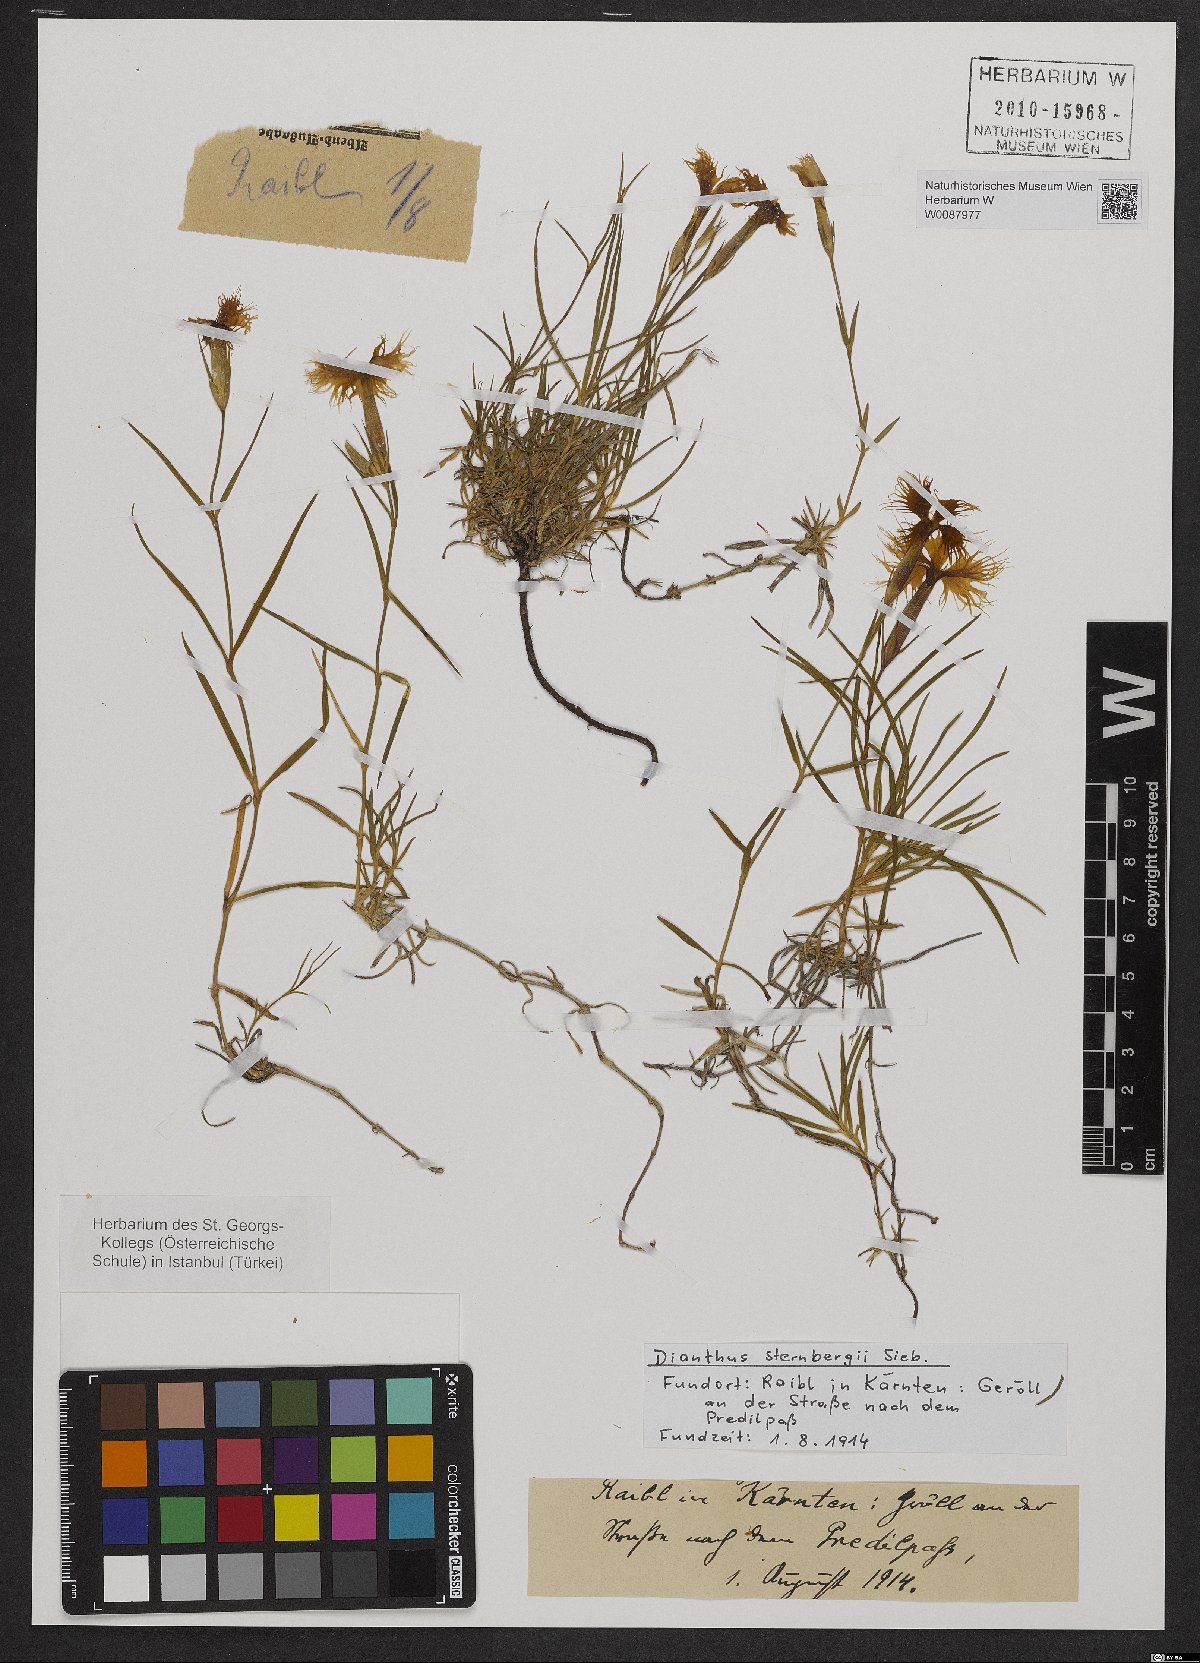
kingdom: Plantae
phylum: Tracheophyta
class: Magnoliopsida
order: Caryophyllales
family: Caryophyllaceae
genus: Dianthus
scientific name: Dianthus sternbergii
